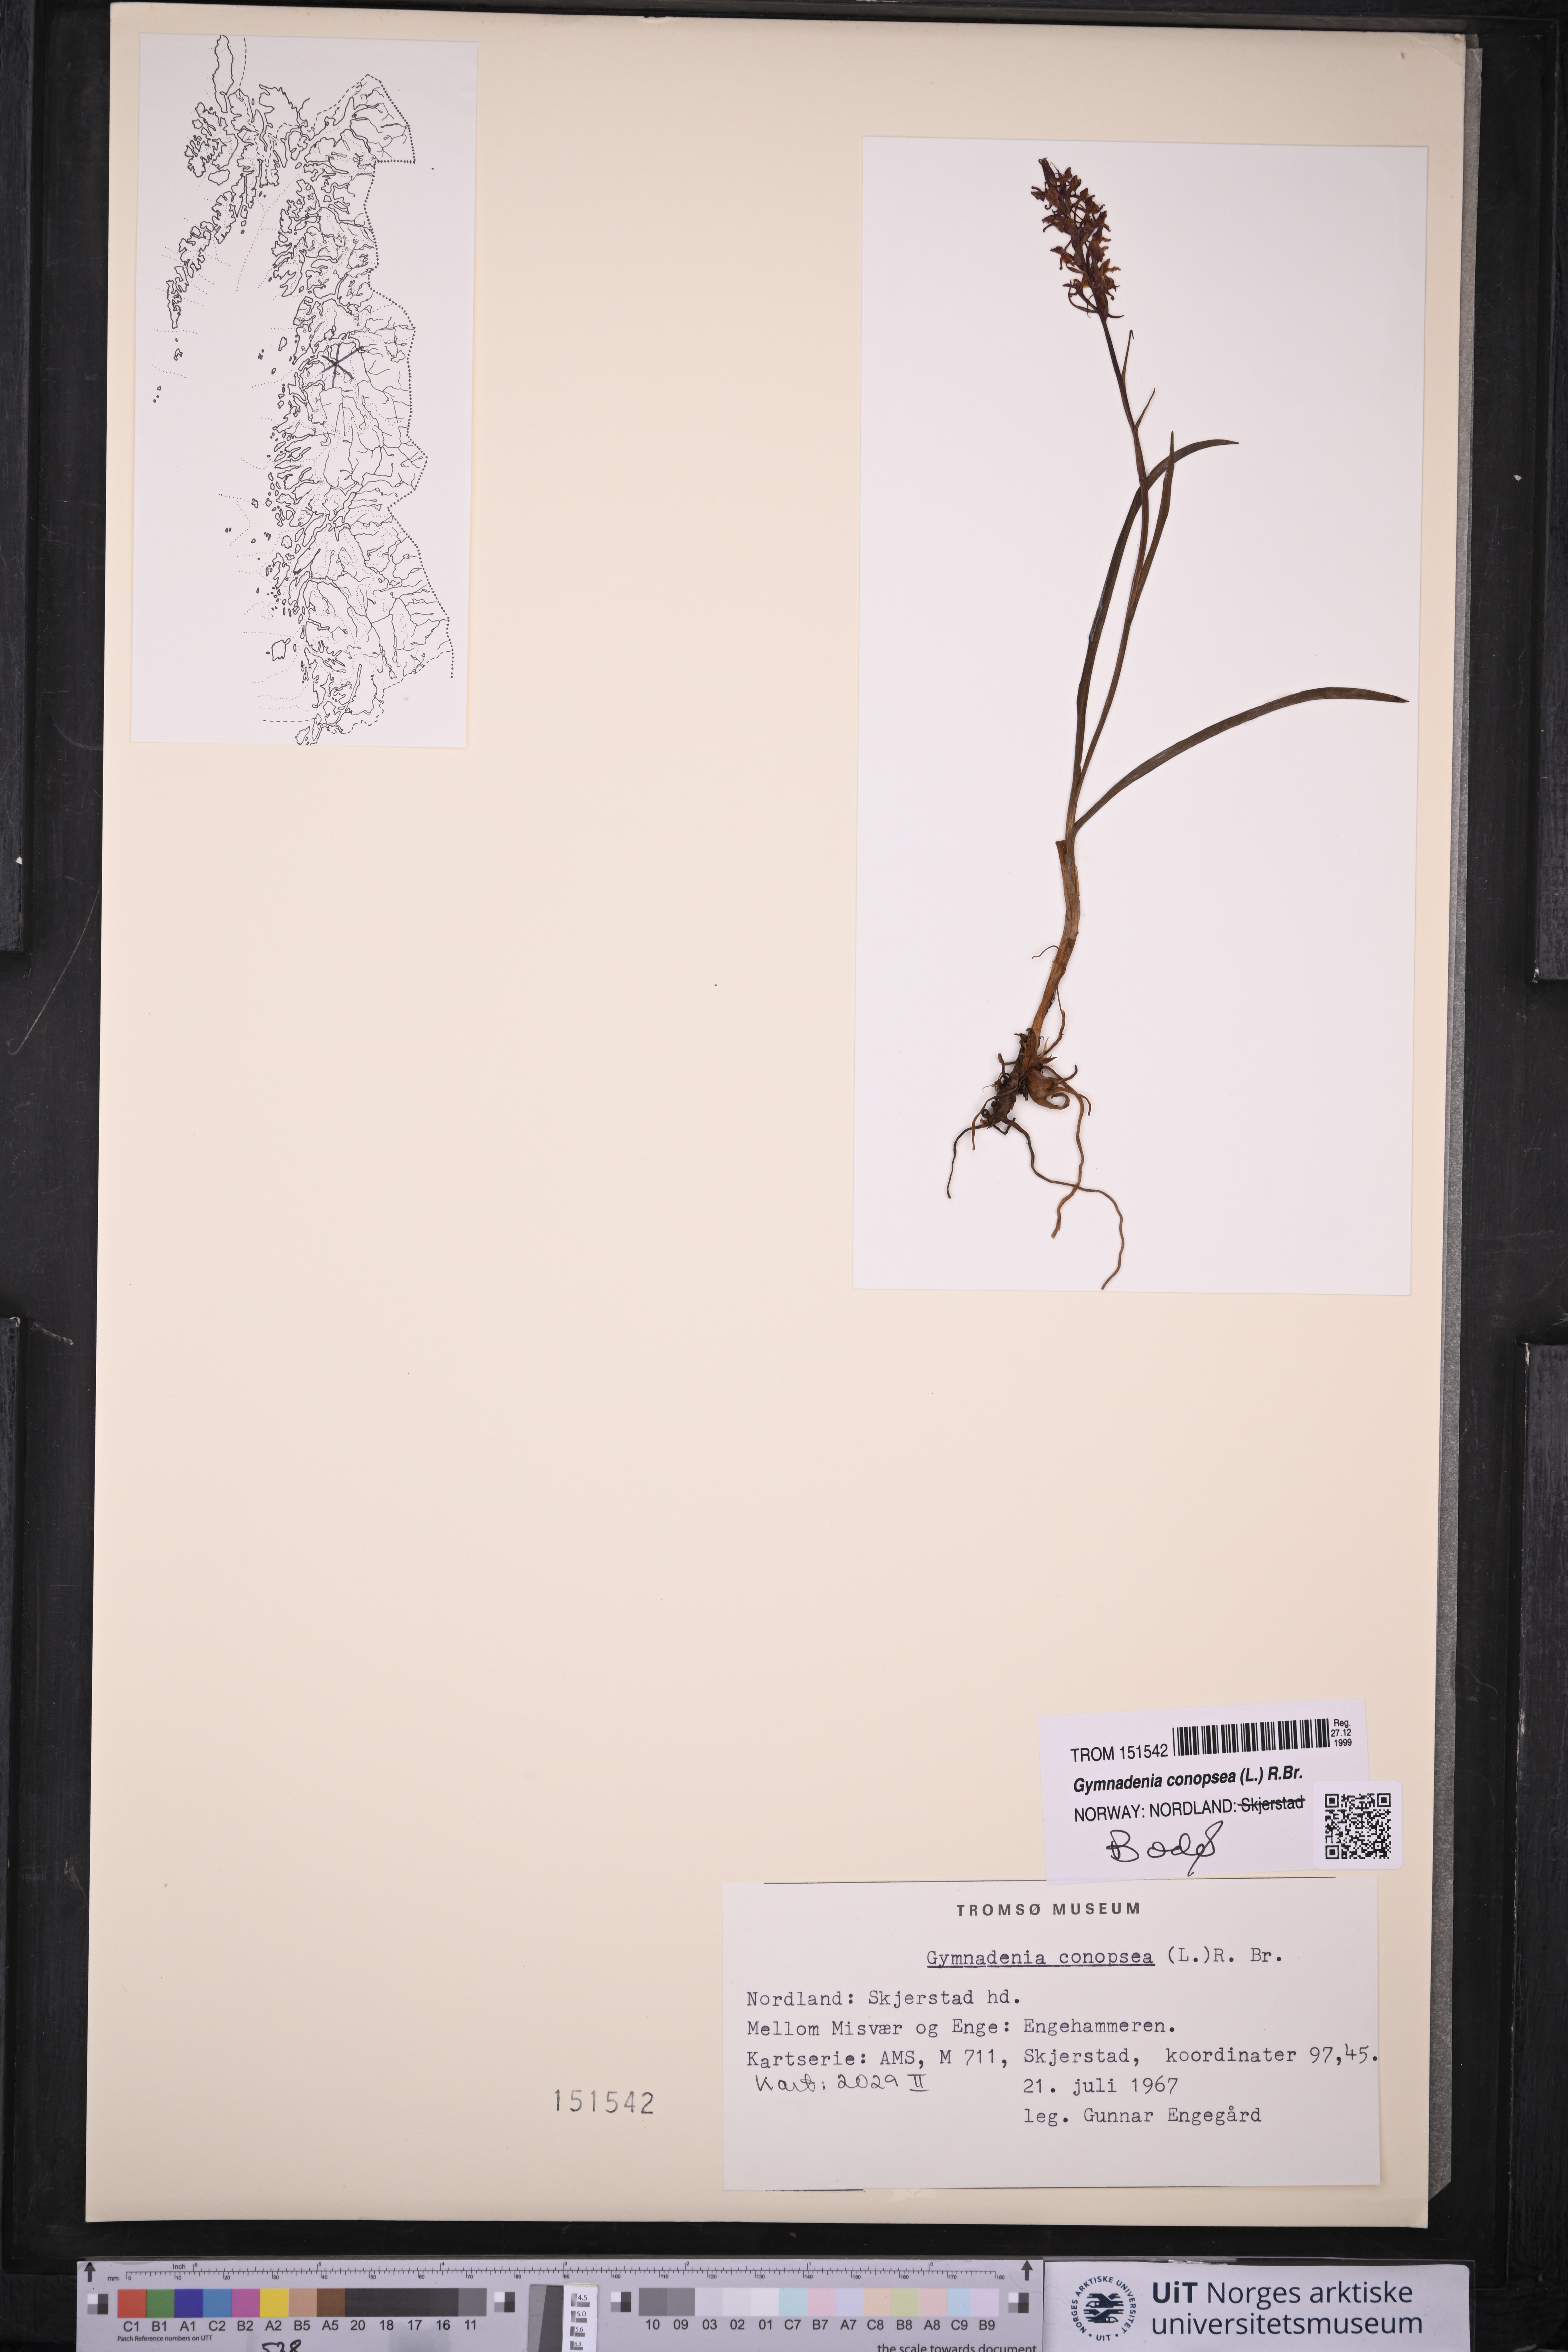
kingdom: Plantae
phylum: Tracheophyta
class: Liliopsida
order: Asparagales
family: Orchidaceae
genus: Gymnadenia
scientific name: Gymnadenia conopsea
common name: Fragrant orchid
